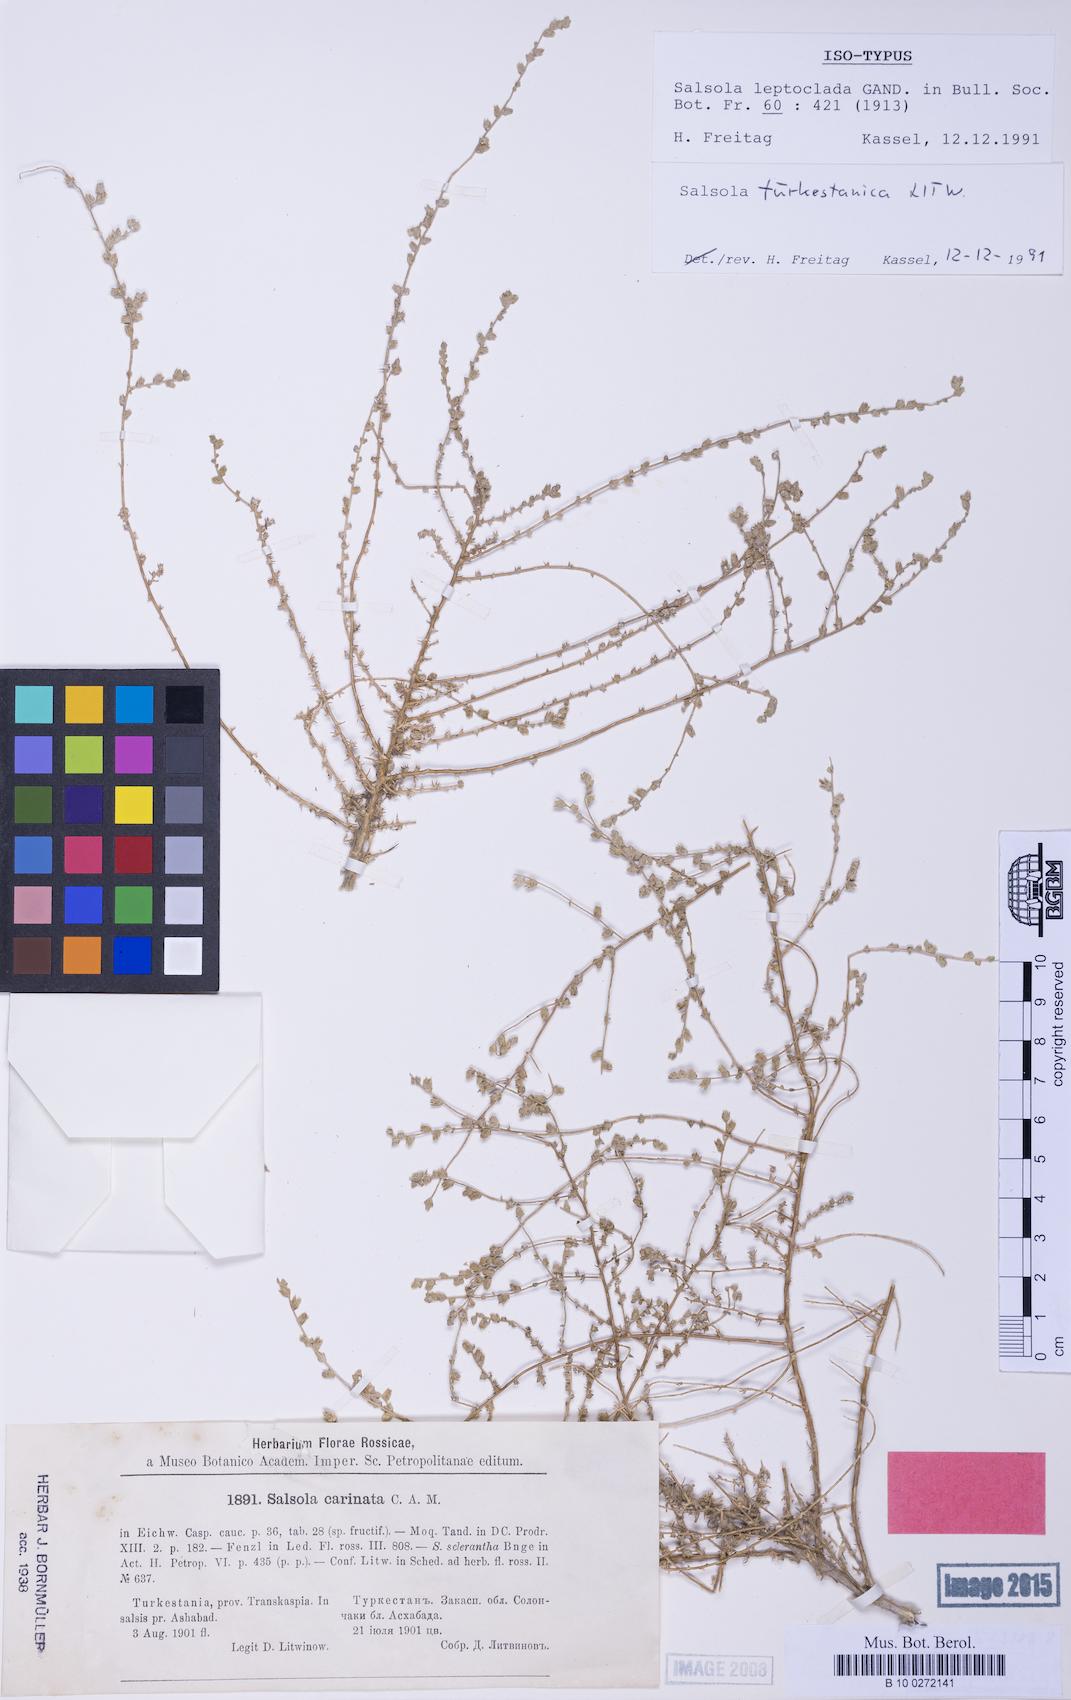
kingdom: Plantae
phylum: Tracheophyta
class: Magnoliopsida
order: Caryophyllales
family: Amaranthaceae
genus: Caroxylon
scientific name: Caroxylon turkestanicum
